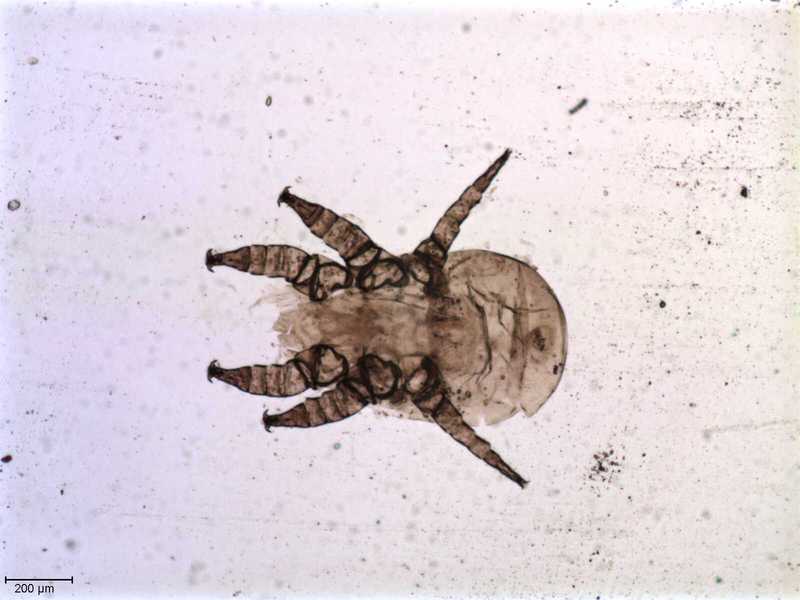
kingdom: Animalia
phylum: Arthropoda
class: Arachnida
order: Mesostigmata
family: Halarachnidae
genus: Orthohalarachne
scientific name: Orthohalarachne letalis
